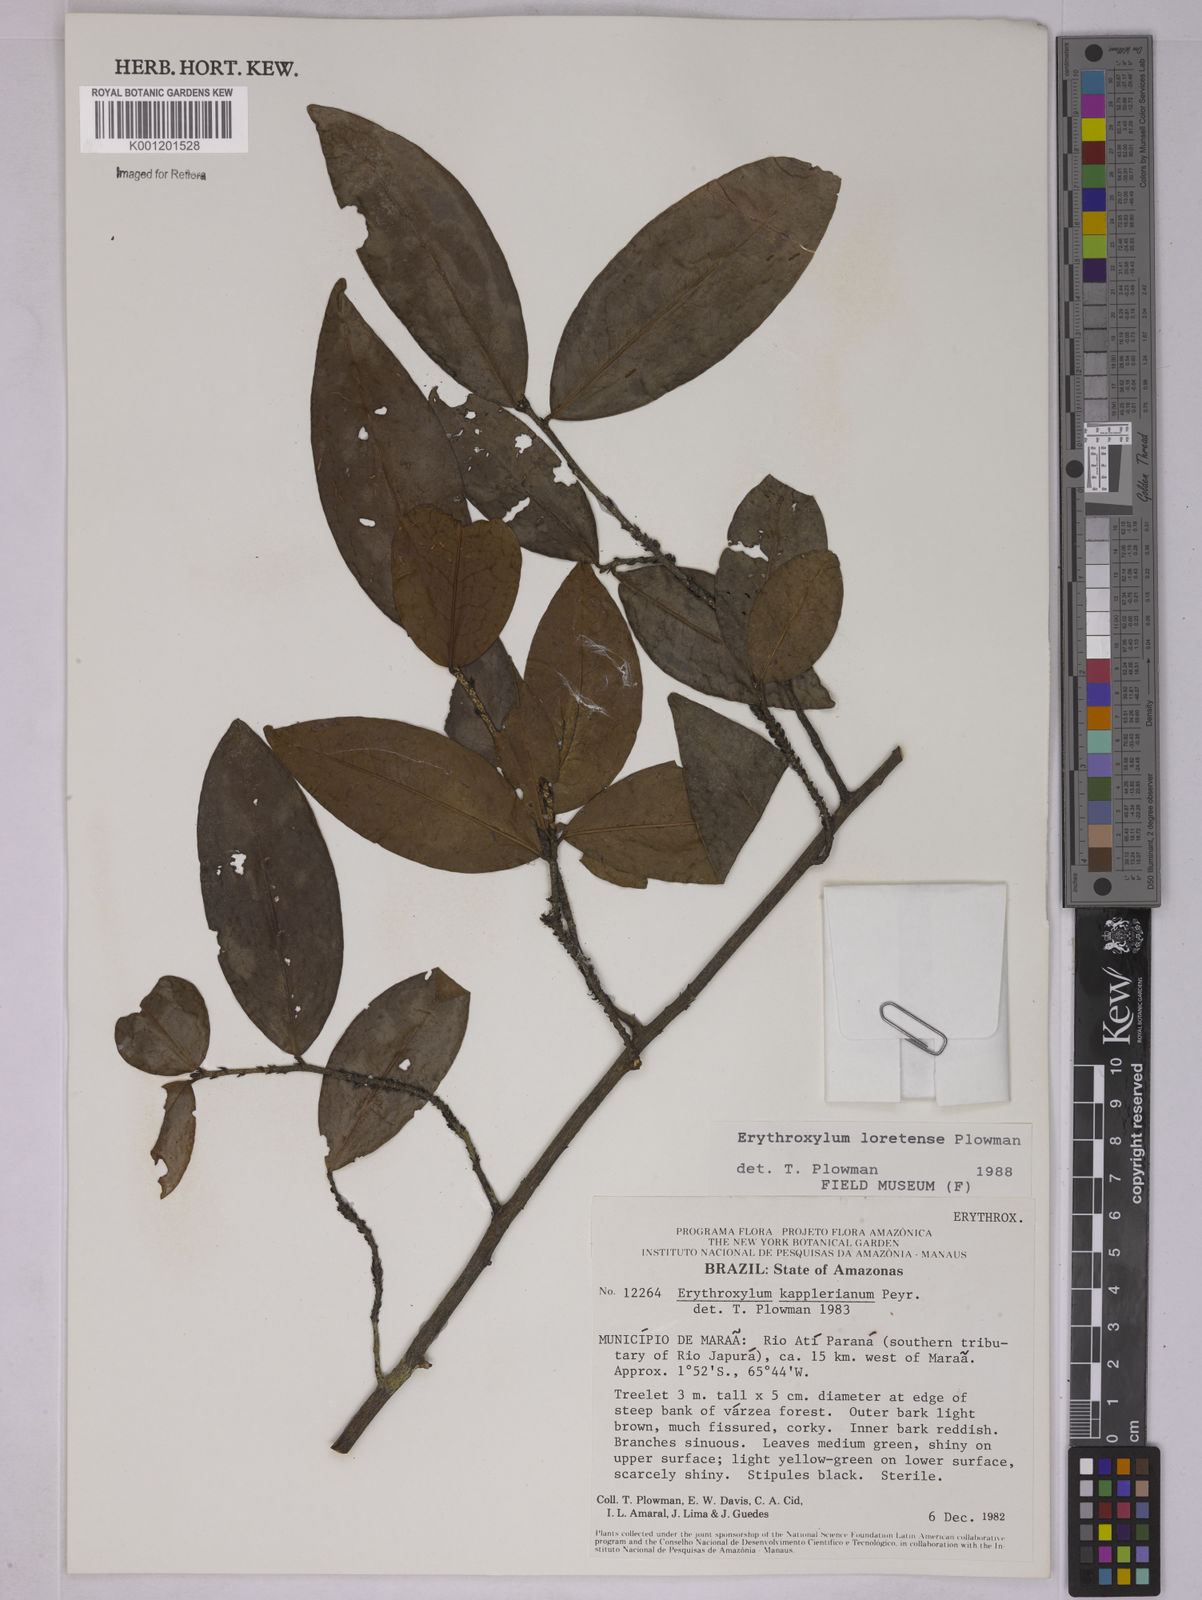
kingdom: Plantae
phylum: Tracheophyta
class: Magnoliopsida
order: Malpighiales
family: Erythroxylaceae
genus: Erythroxylum
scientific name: Erythroxylum loretense
